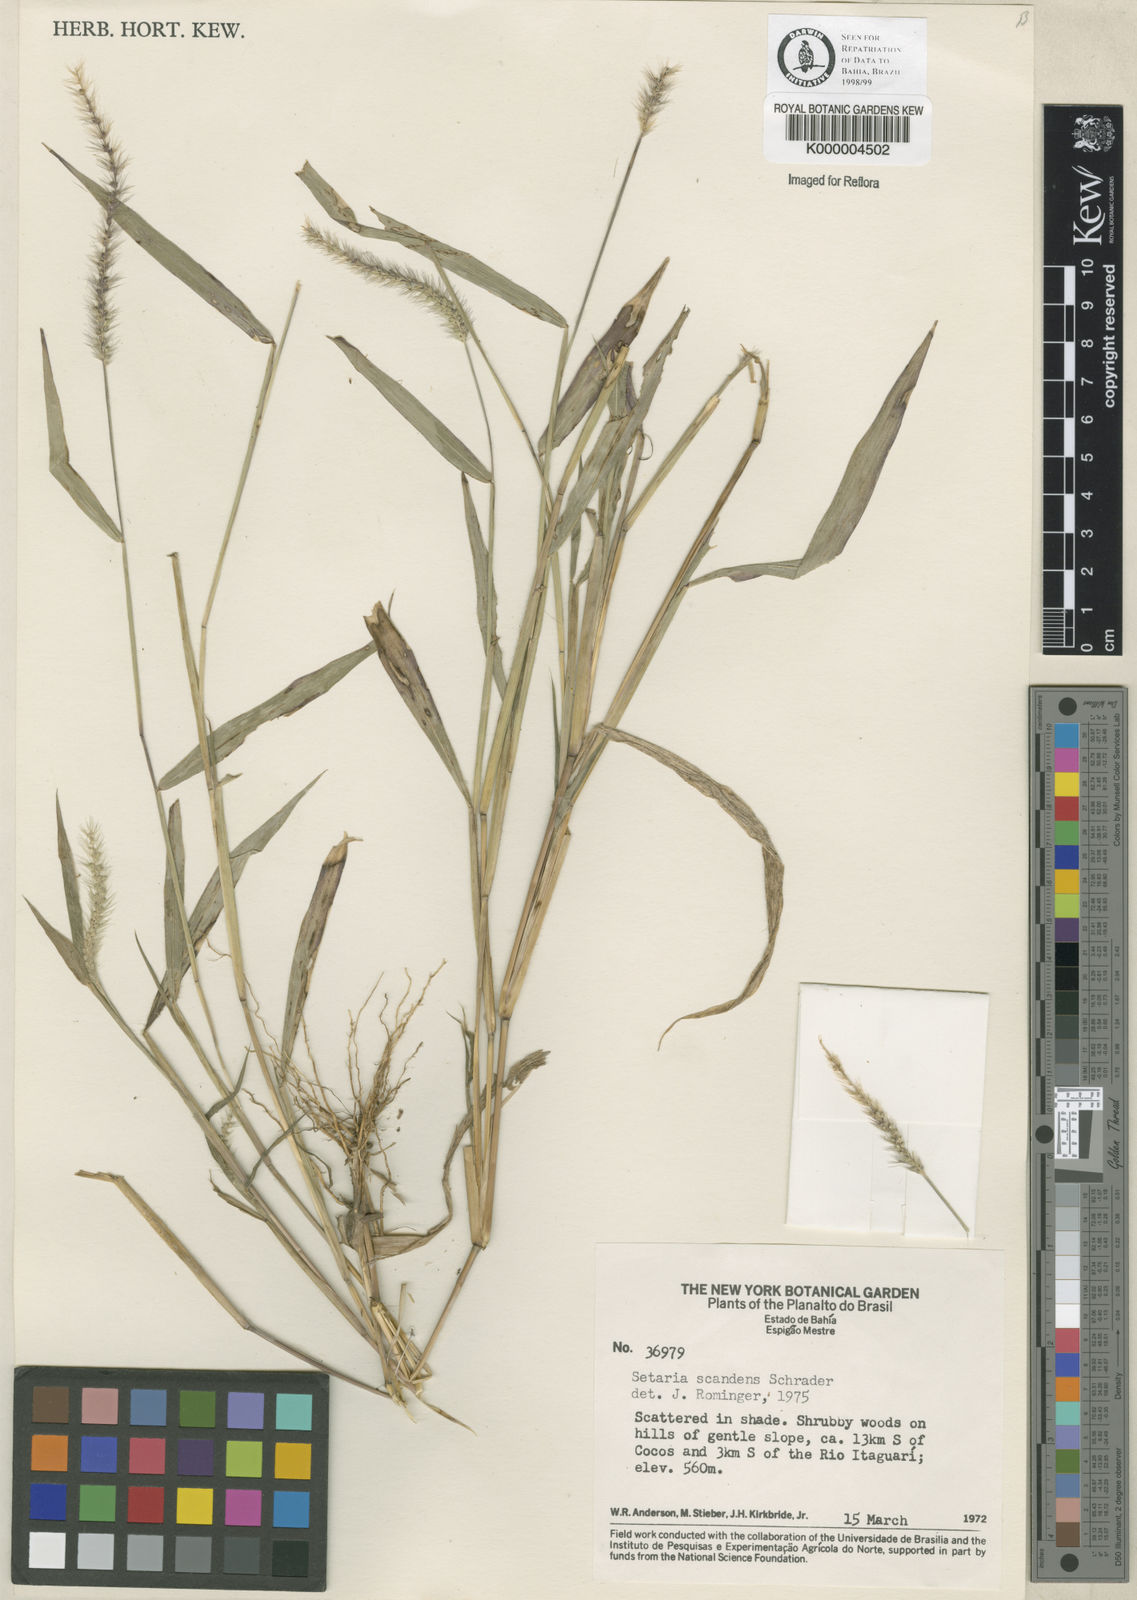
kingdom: Plantae
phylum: Tracheophyta
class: Liliopsida
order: Poales
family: Poaceae
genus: Setaria
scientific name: Setaria scandens
